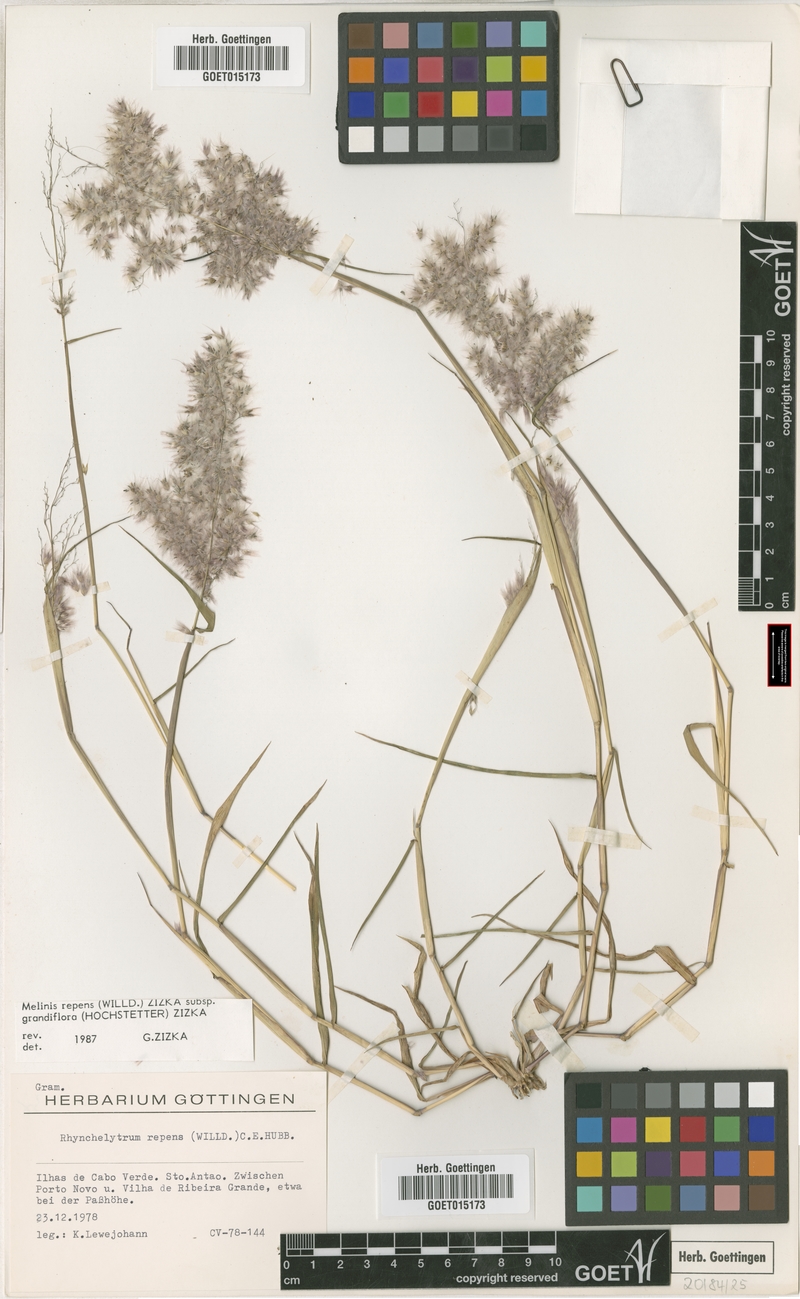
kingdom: Plantae
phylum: Tracheophyta
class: Liliopsida
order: Poales
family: Poaceae
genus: Melinis
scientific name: Melinis repens
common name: Rose natal grass
